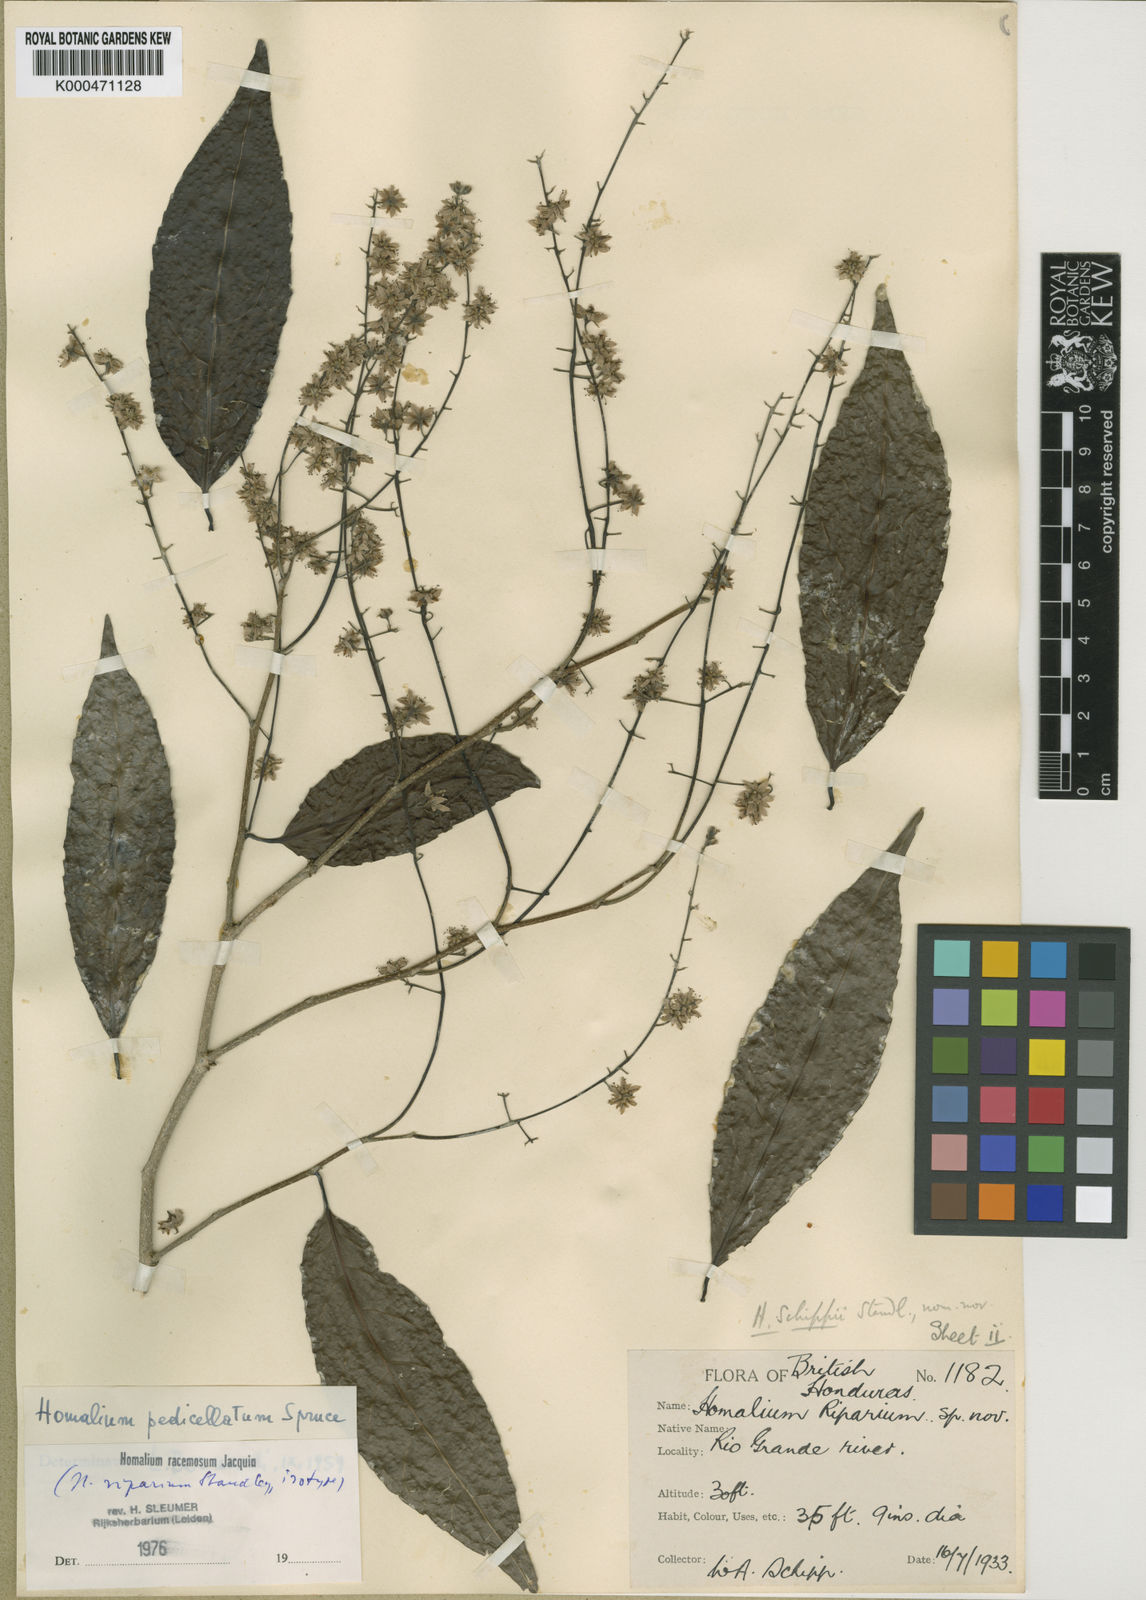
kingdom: Plantae
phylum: Tracheophyta
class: Magnoliopsida
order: Malpighiales
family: Salicaceae
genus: Homalium
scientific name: Homalium racemosum
